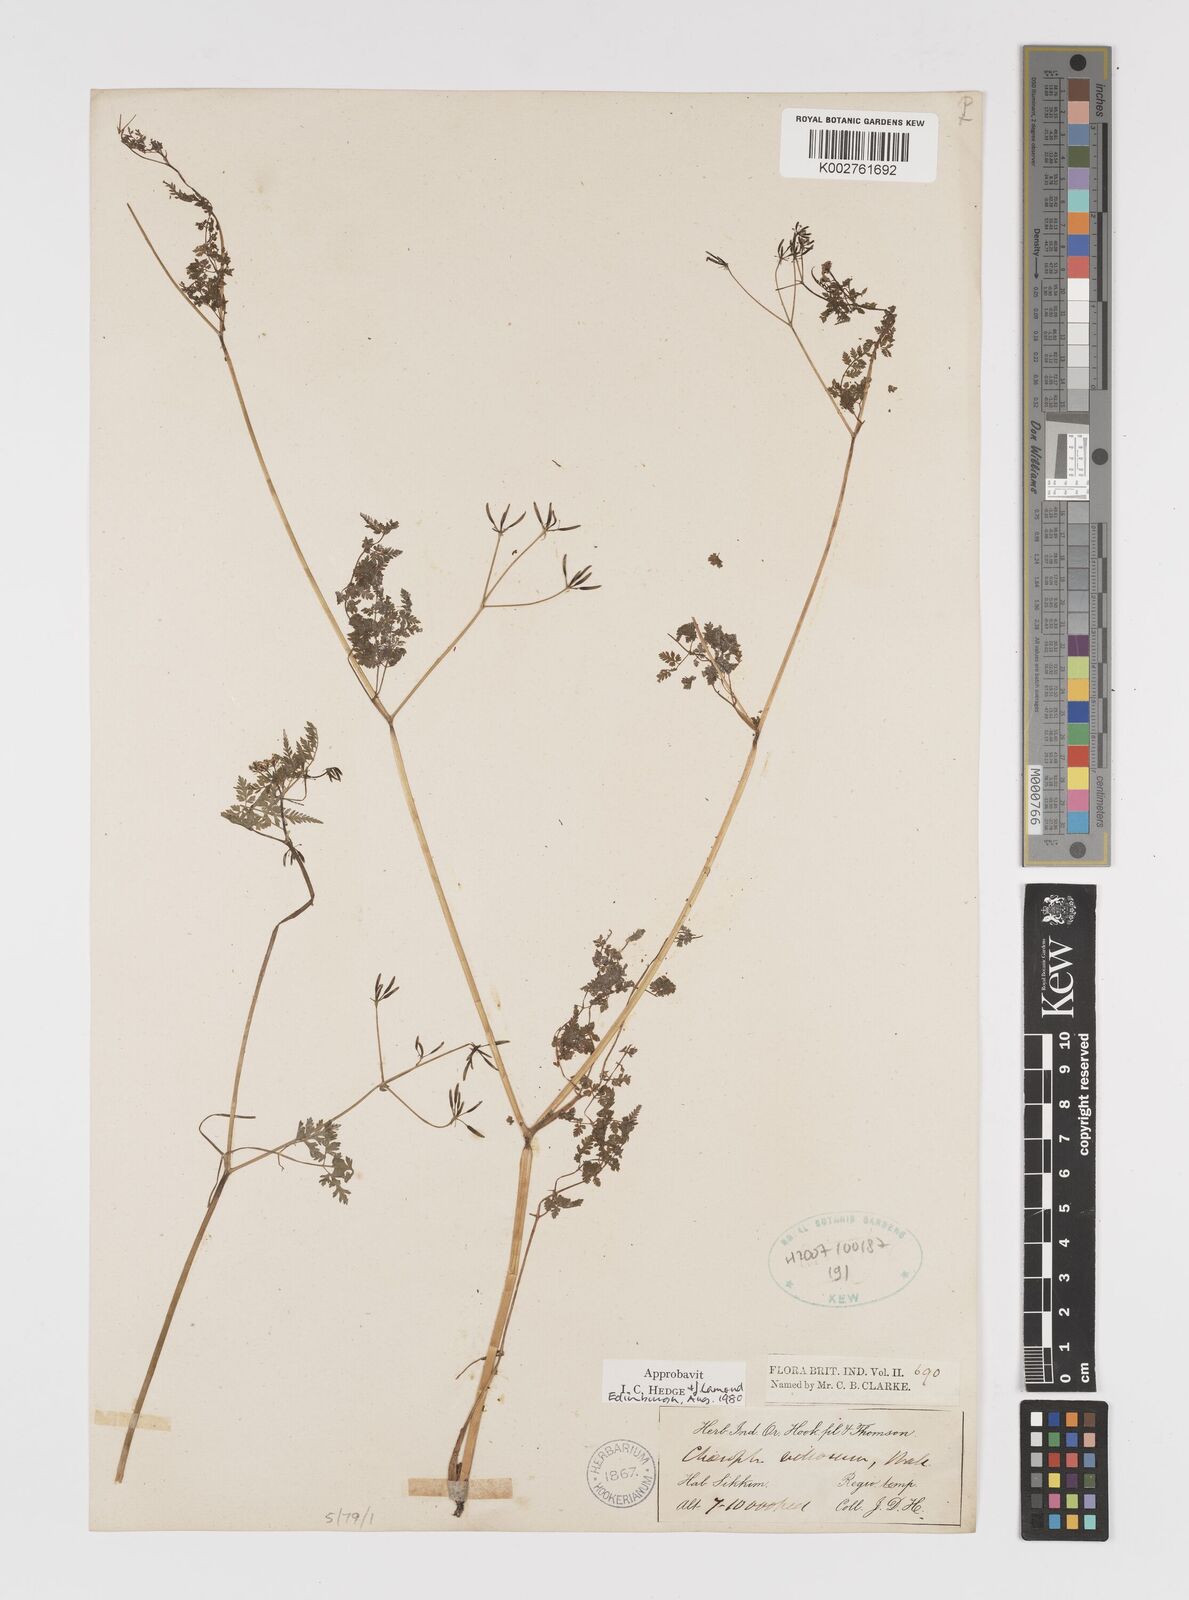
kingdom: Plantae
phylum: Tracheophyta
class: Magnoliopsida
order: Apiales
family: Apiaceae
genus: Chaerophyllum
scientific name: Chaerophyllum villosum
